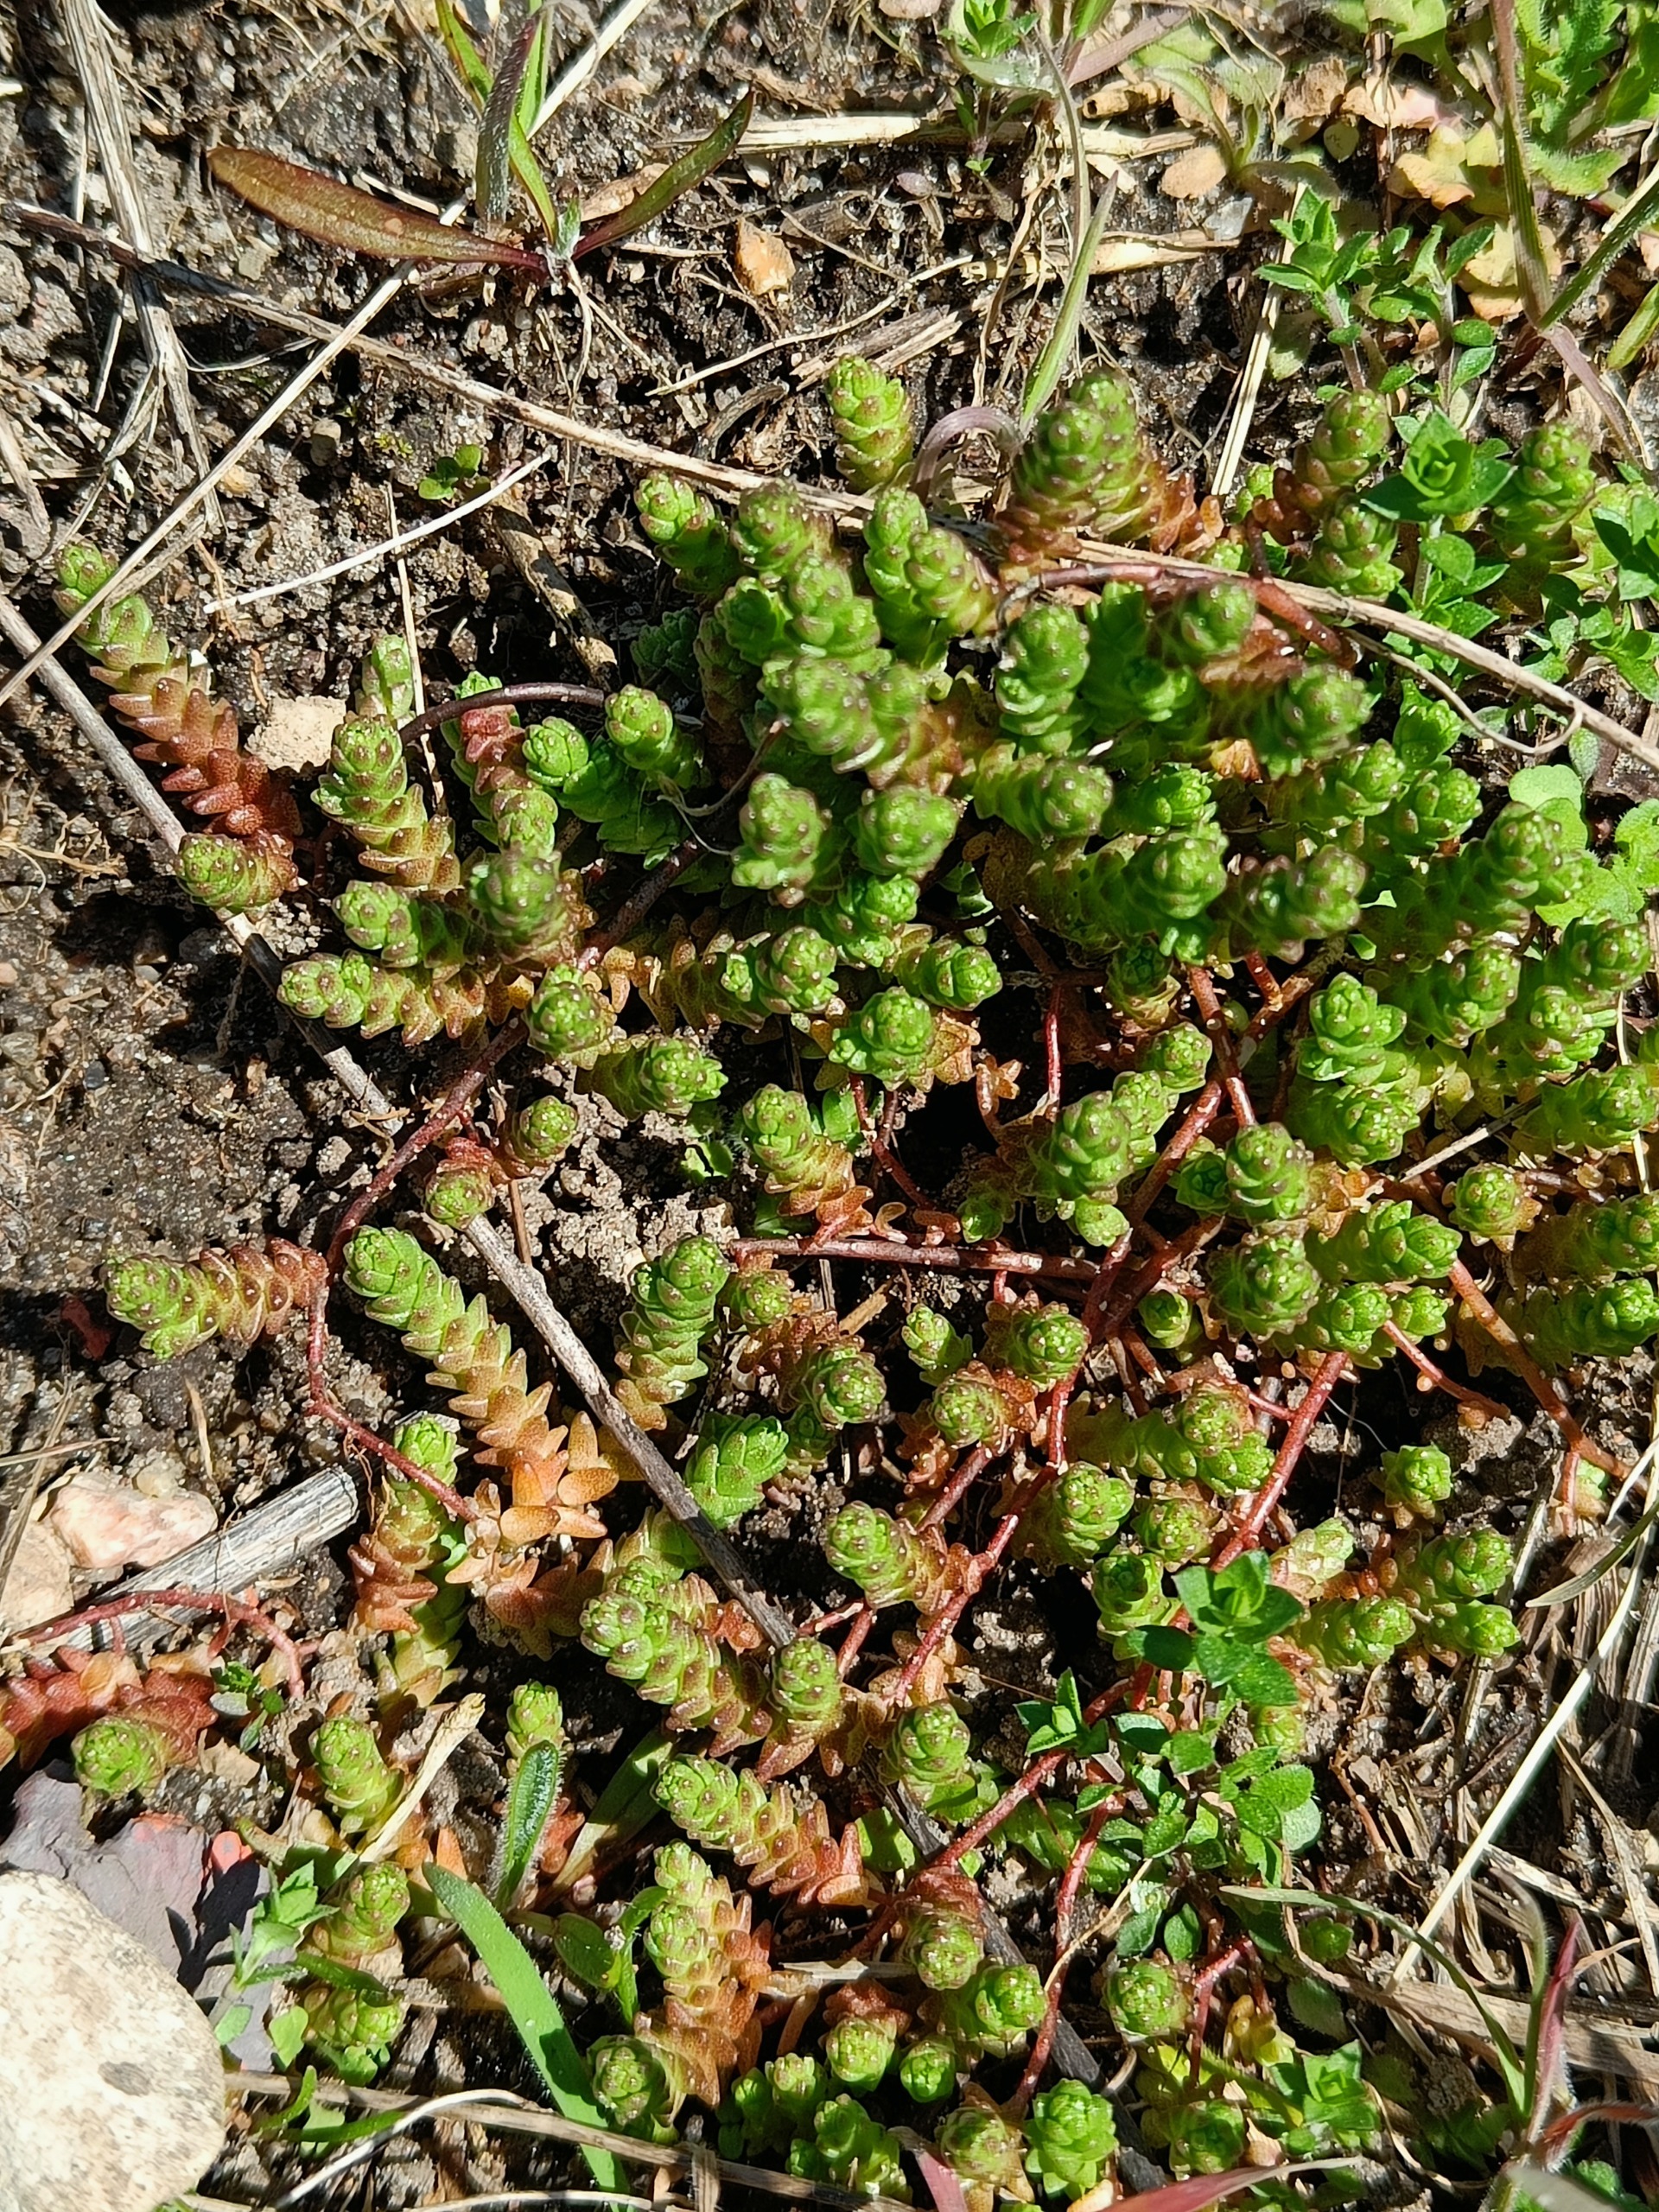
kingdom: Plantae
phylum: Tracheophyta
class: Magnoliopsida
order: Saxifragales
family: Crassulaceae
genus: Sedum
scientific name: Sedum acre
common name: Bidende stenurt
